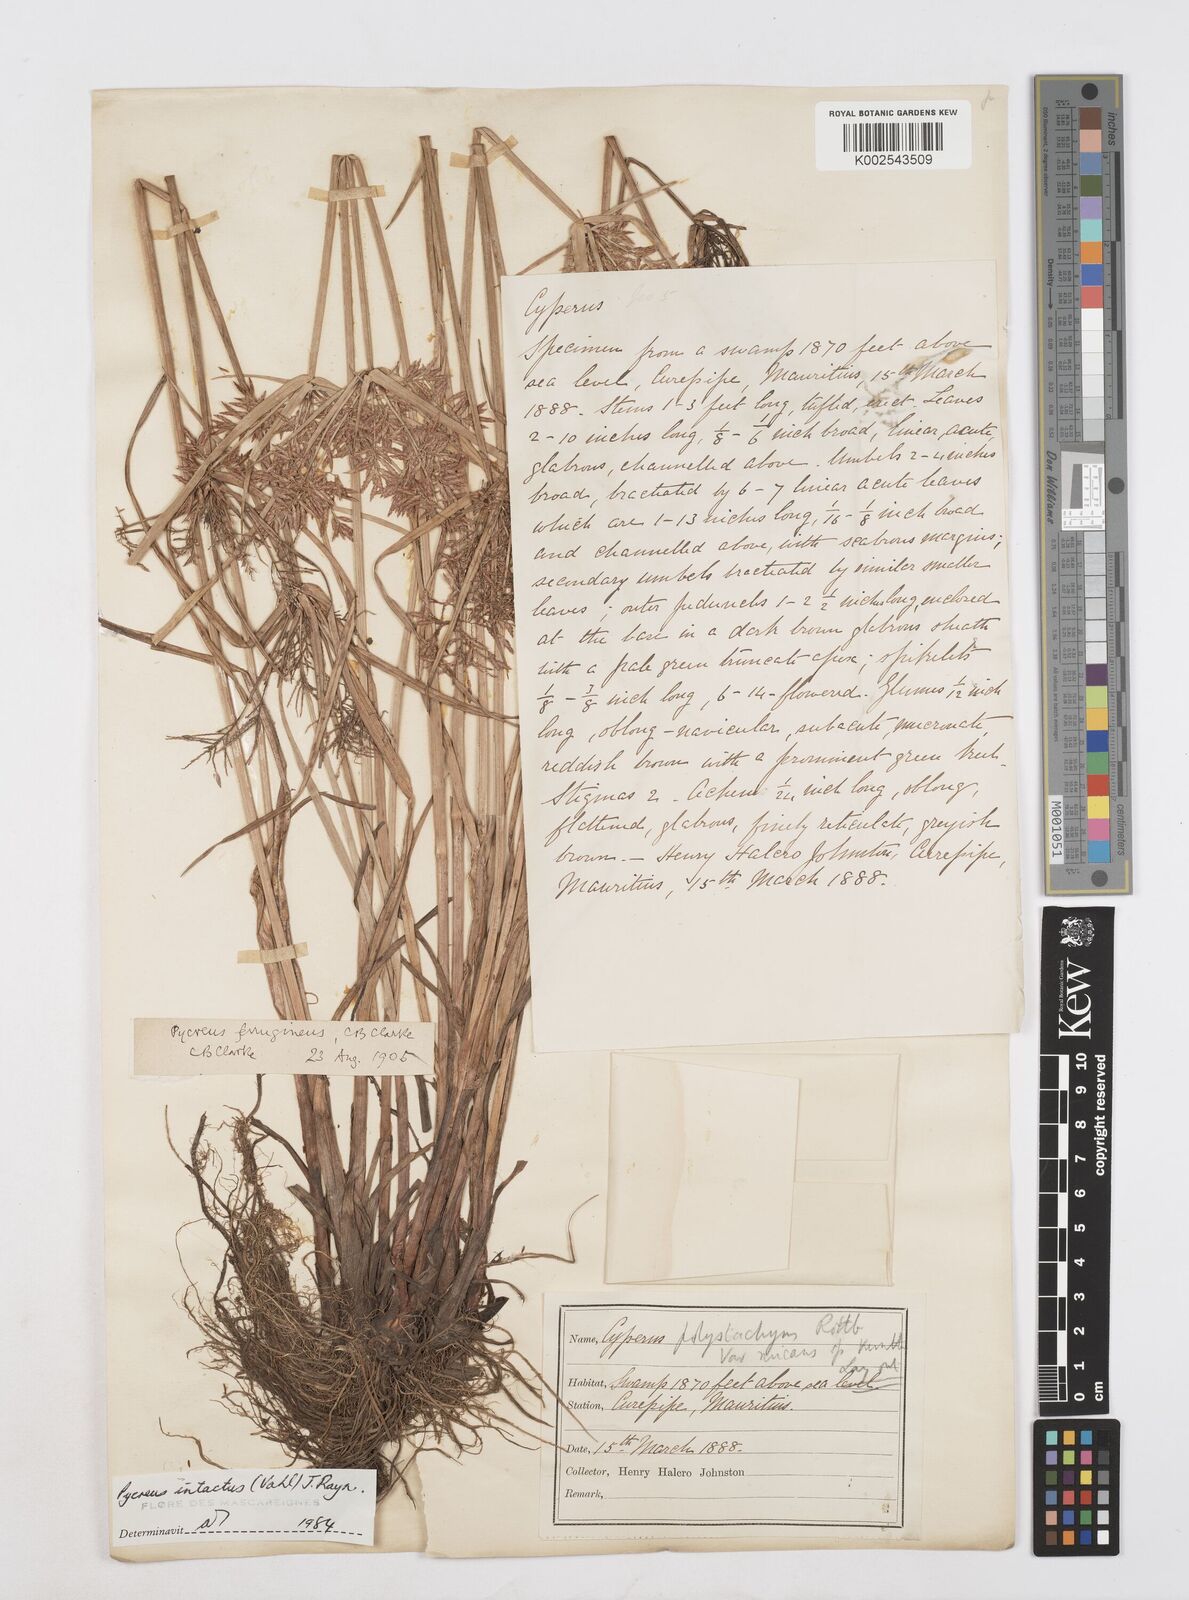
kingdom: Plantae
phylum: Tracheophyta
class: Liliopsida
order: Poales
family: Cyperaceae
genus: Cyperus
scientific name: Cyperus intactus
